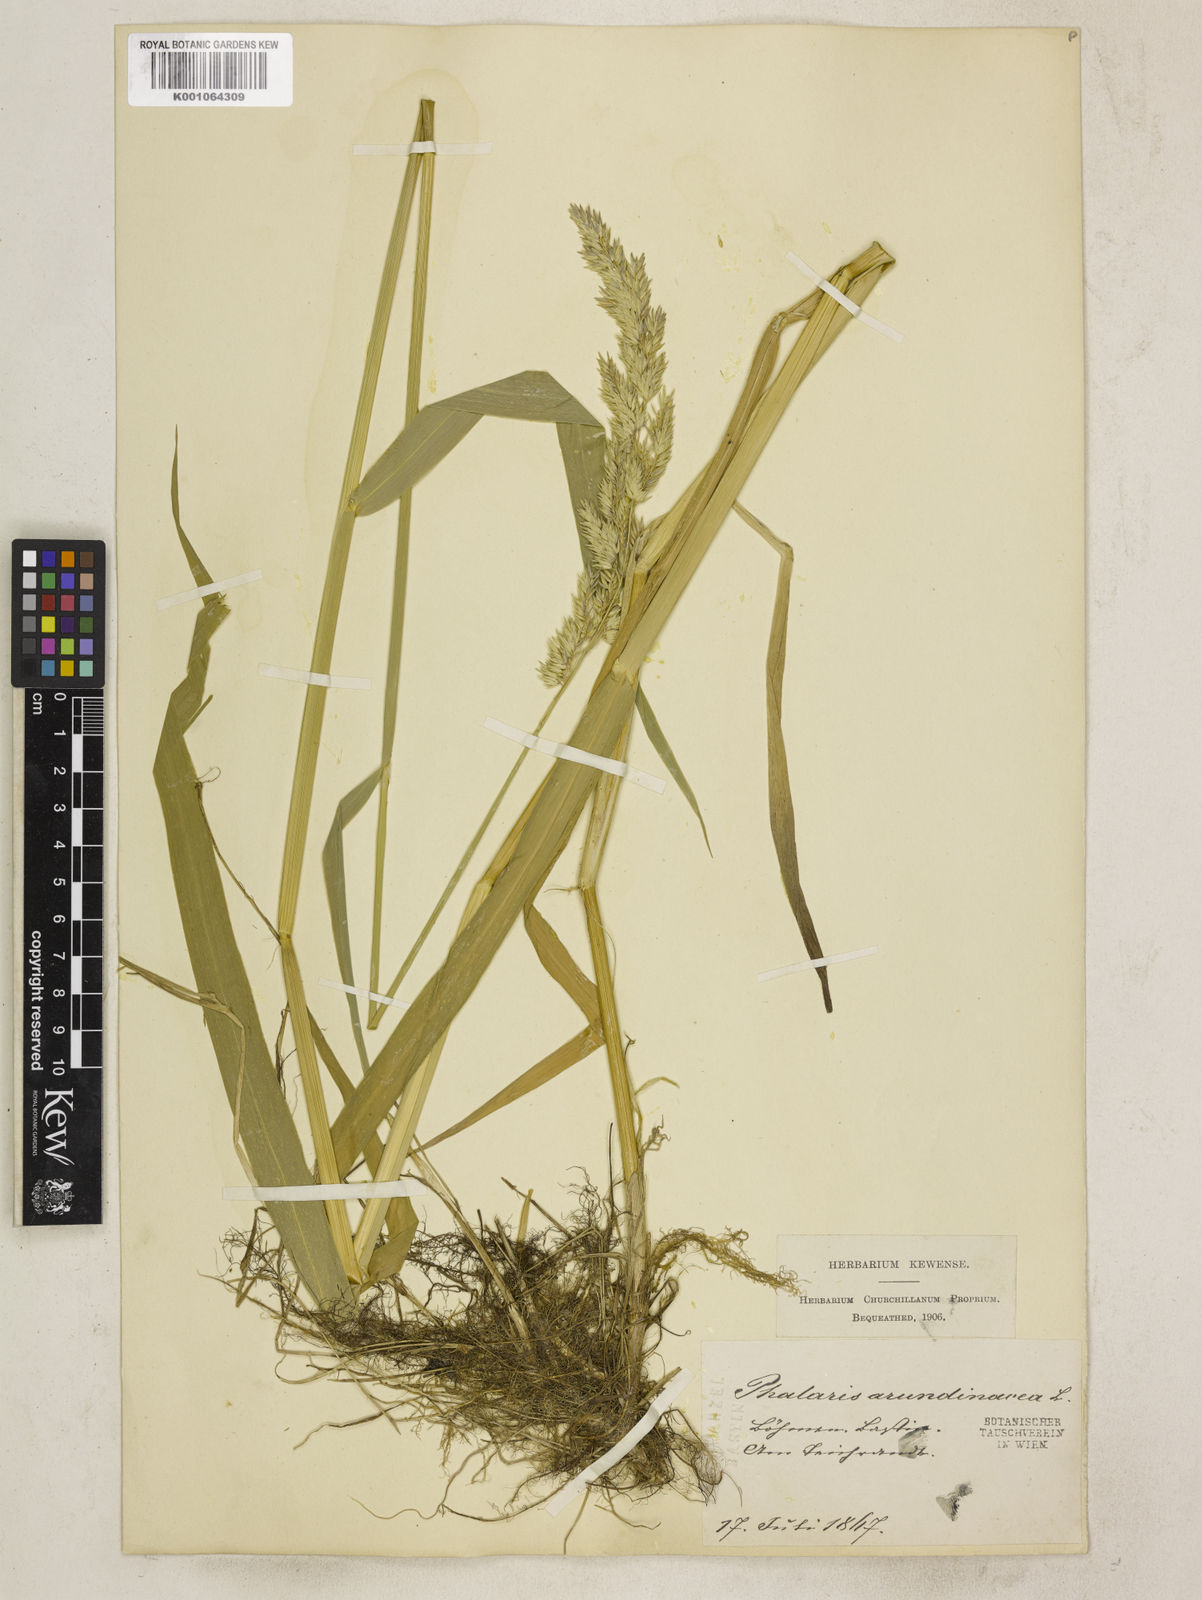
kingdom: Plantae
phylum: Tracheophyta
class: Liliopsida
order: Poales
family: Poaceae
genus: Phalaris
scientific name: Phalaris arundinacea
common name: Reed canary-grass
